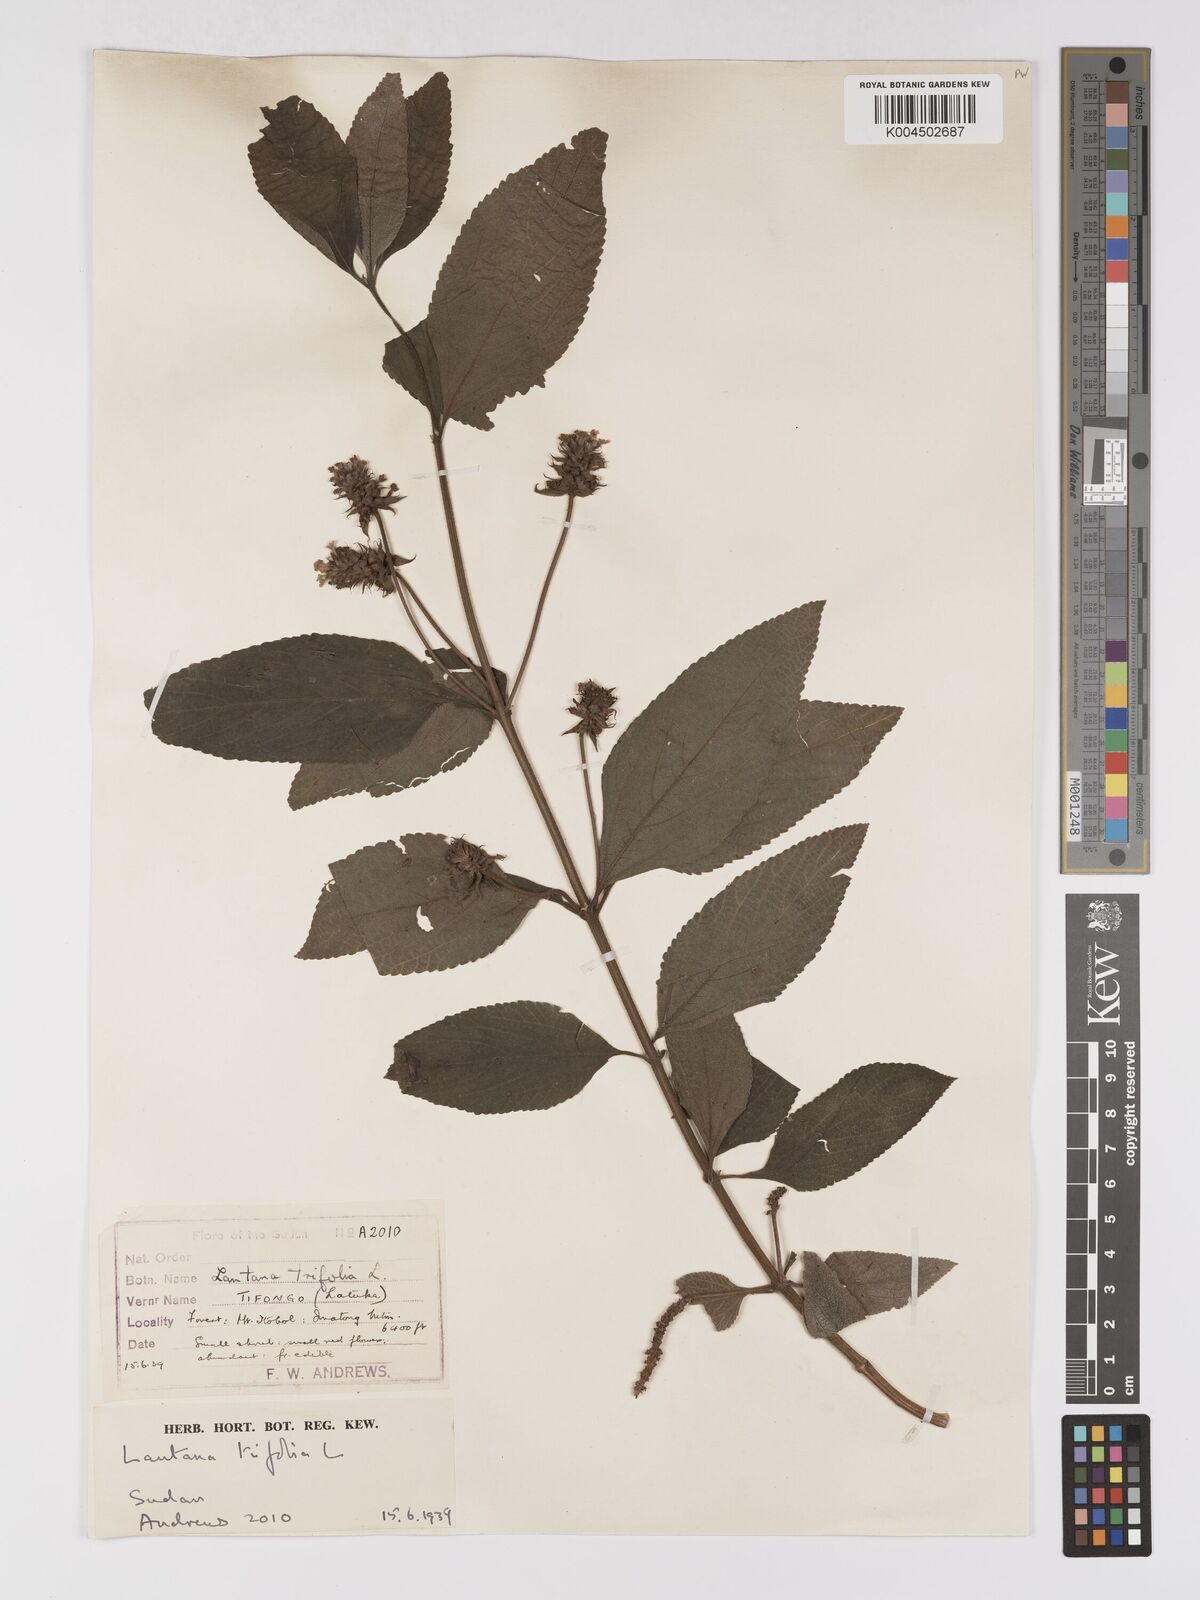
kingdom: Plantae
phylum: Tracheophyta
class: Magnoliopsida
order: Lamiales
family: Verbenaceae
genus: Lantana
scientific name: Lantana trifolia
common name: Sweet-sage
